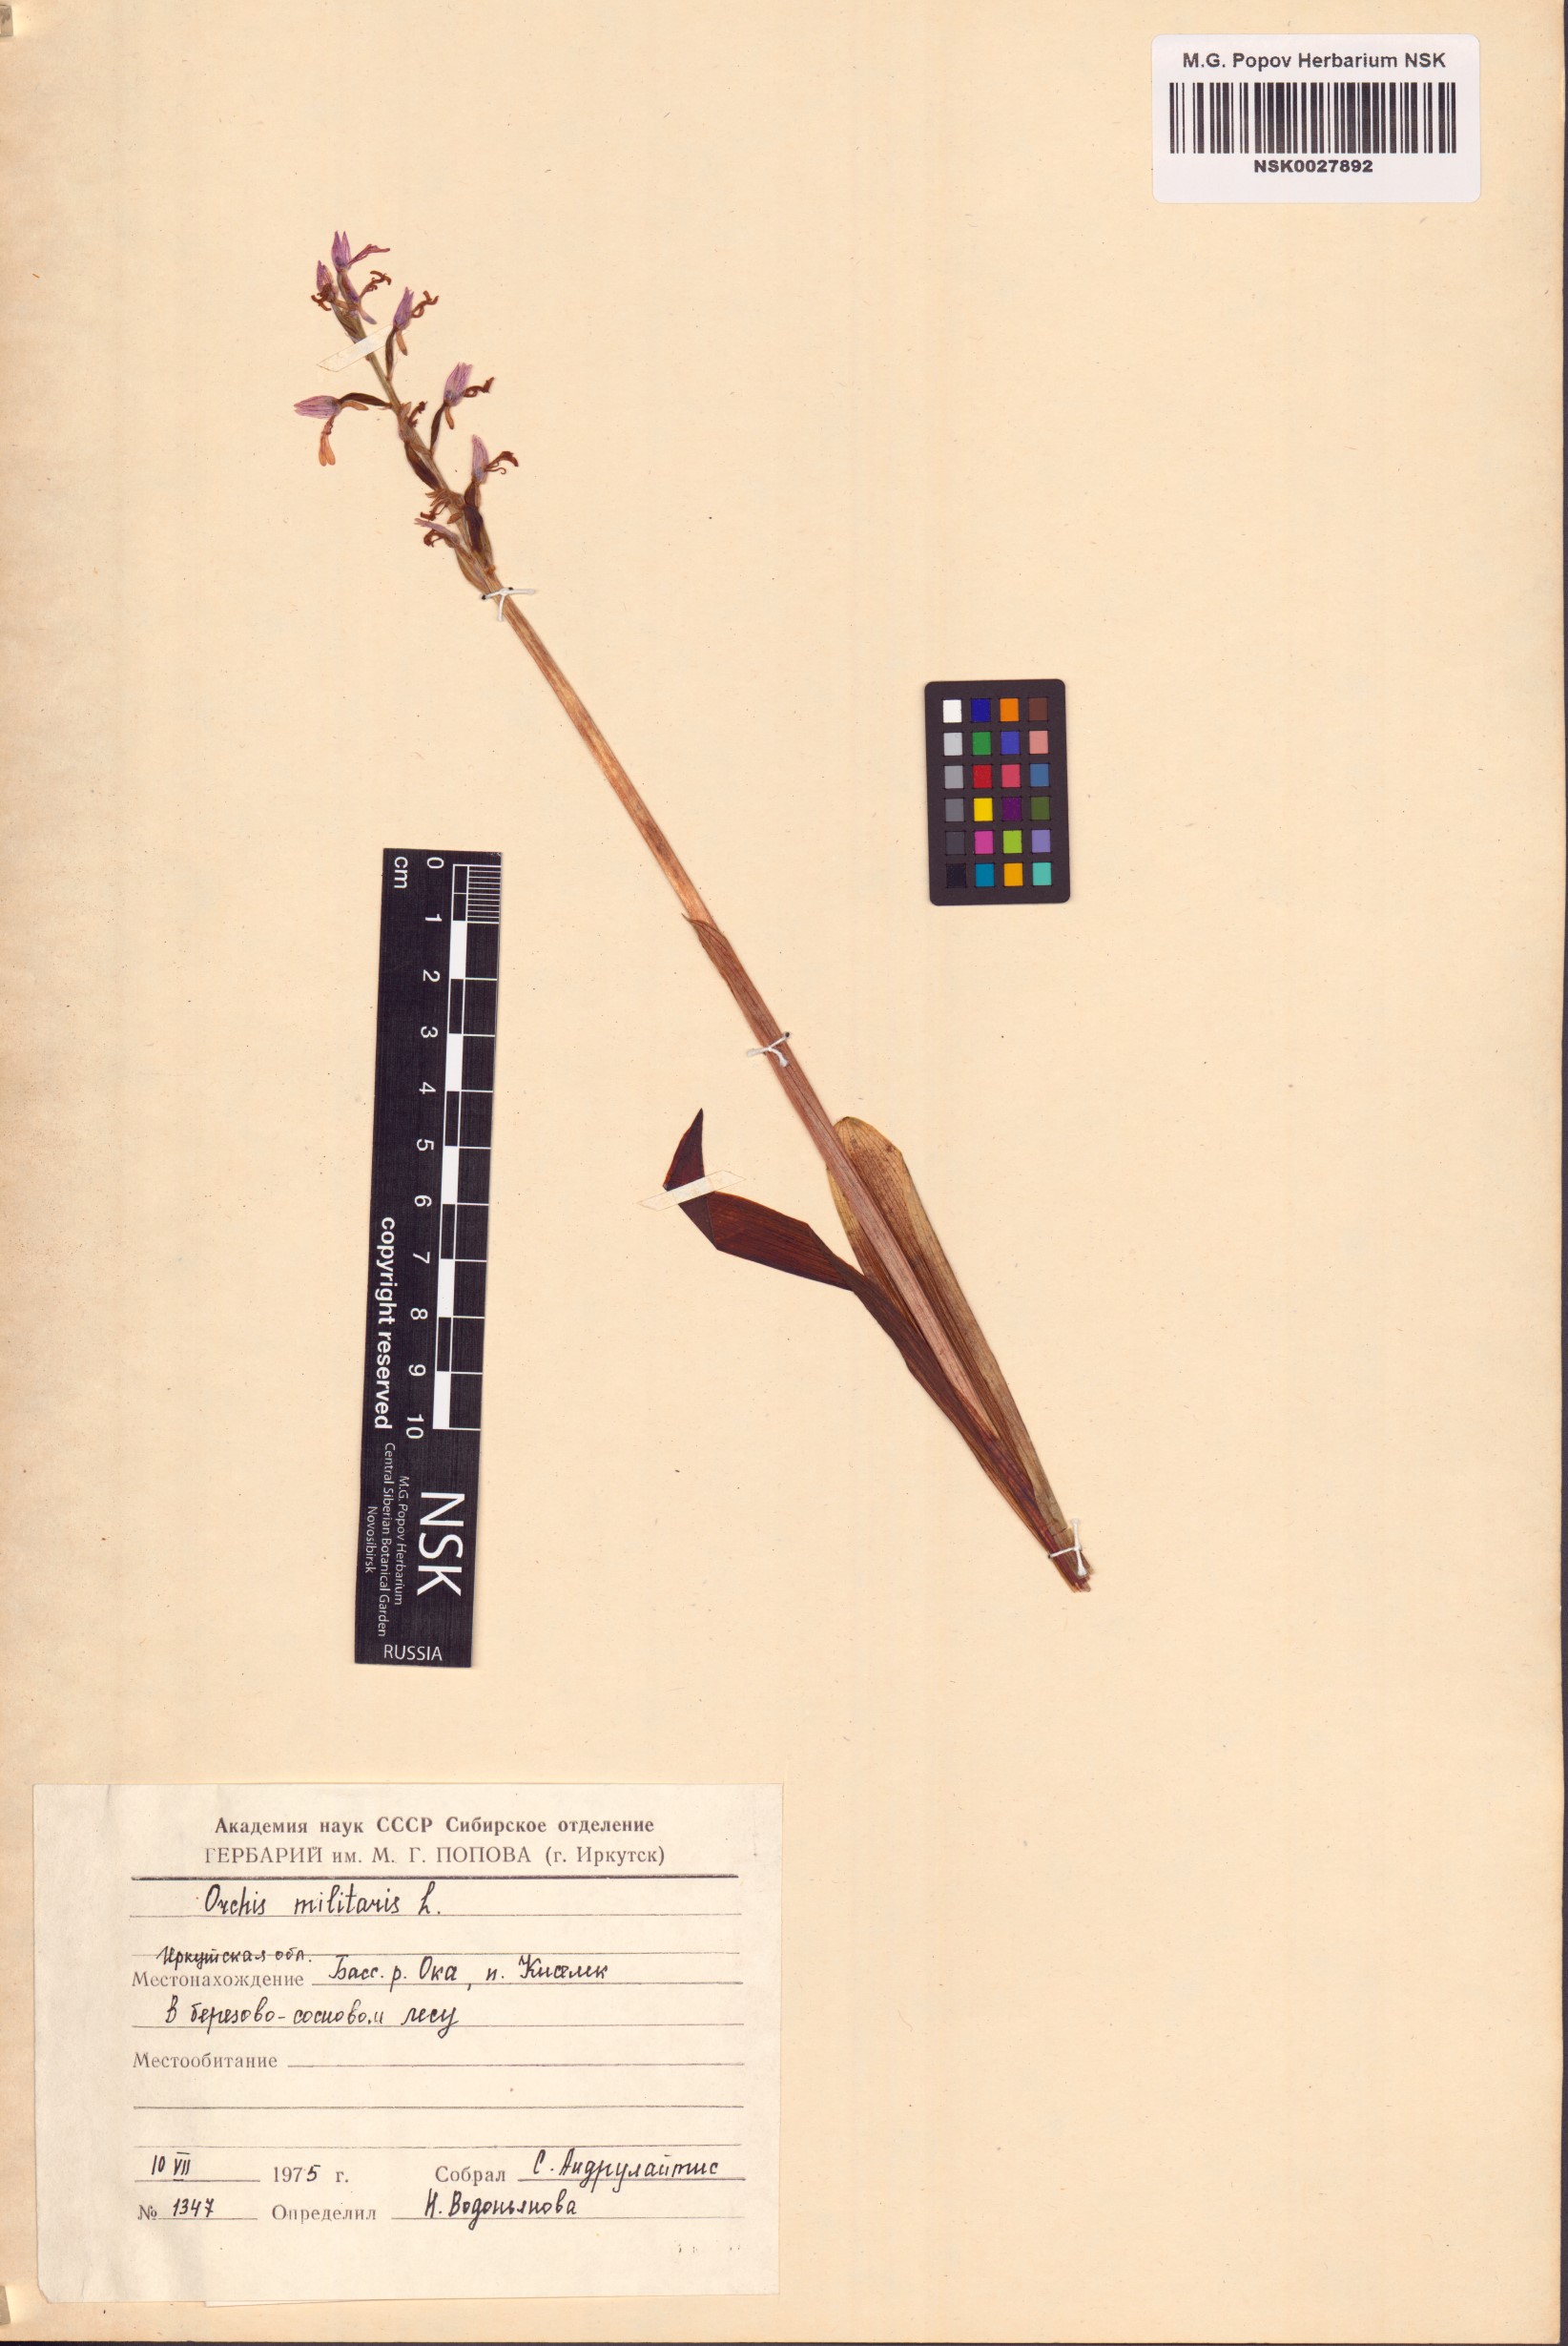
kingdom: Plantae
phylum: Tracheophyta
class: Liliopsida
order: Asparagales
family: Orchidaceae
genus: Orchis
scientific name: Orchis militaris
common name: Military orchid
